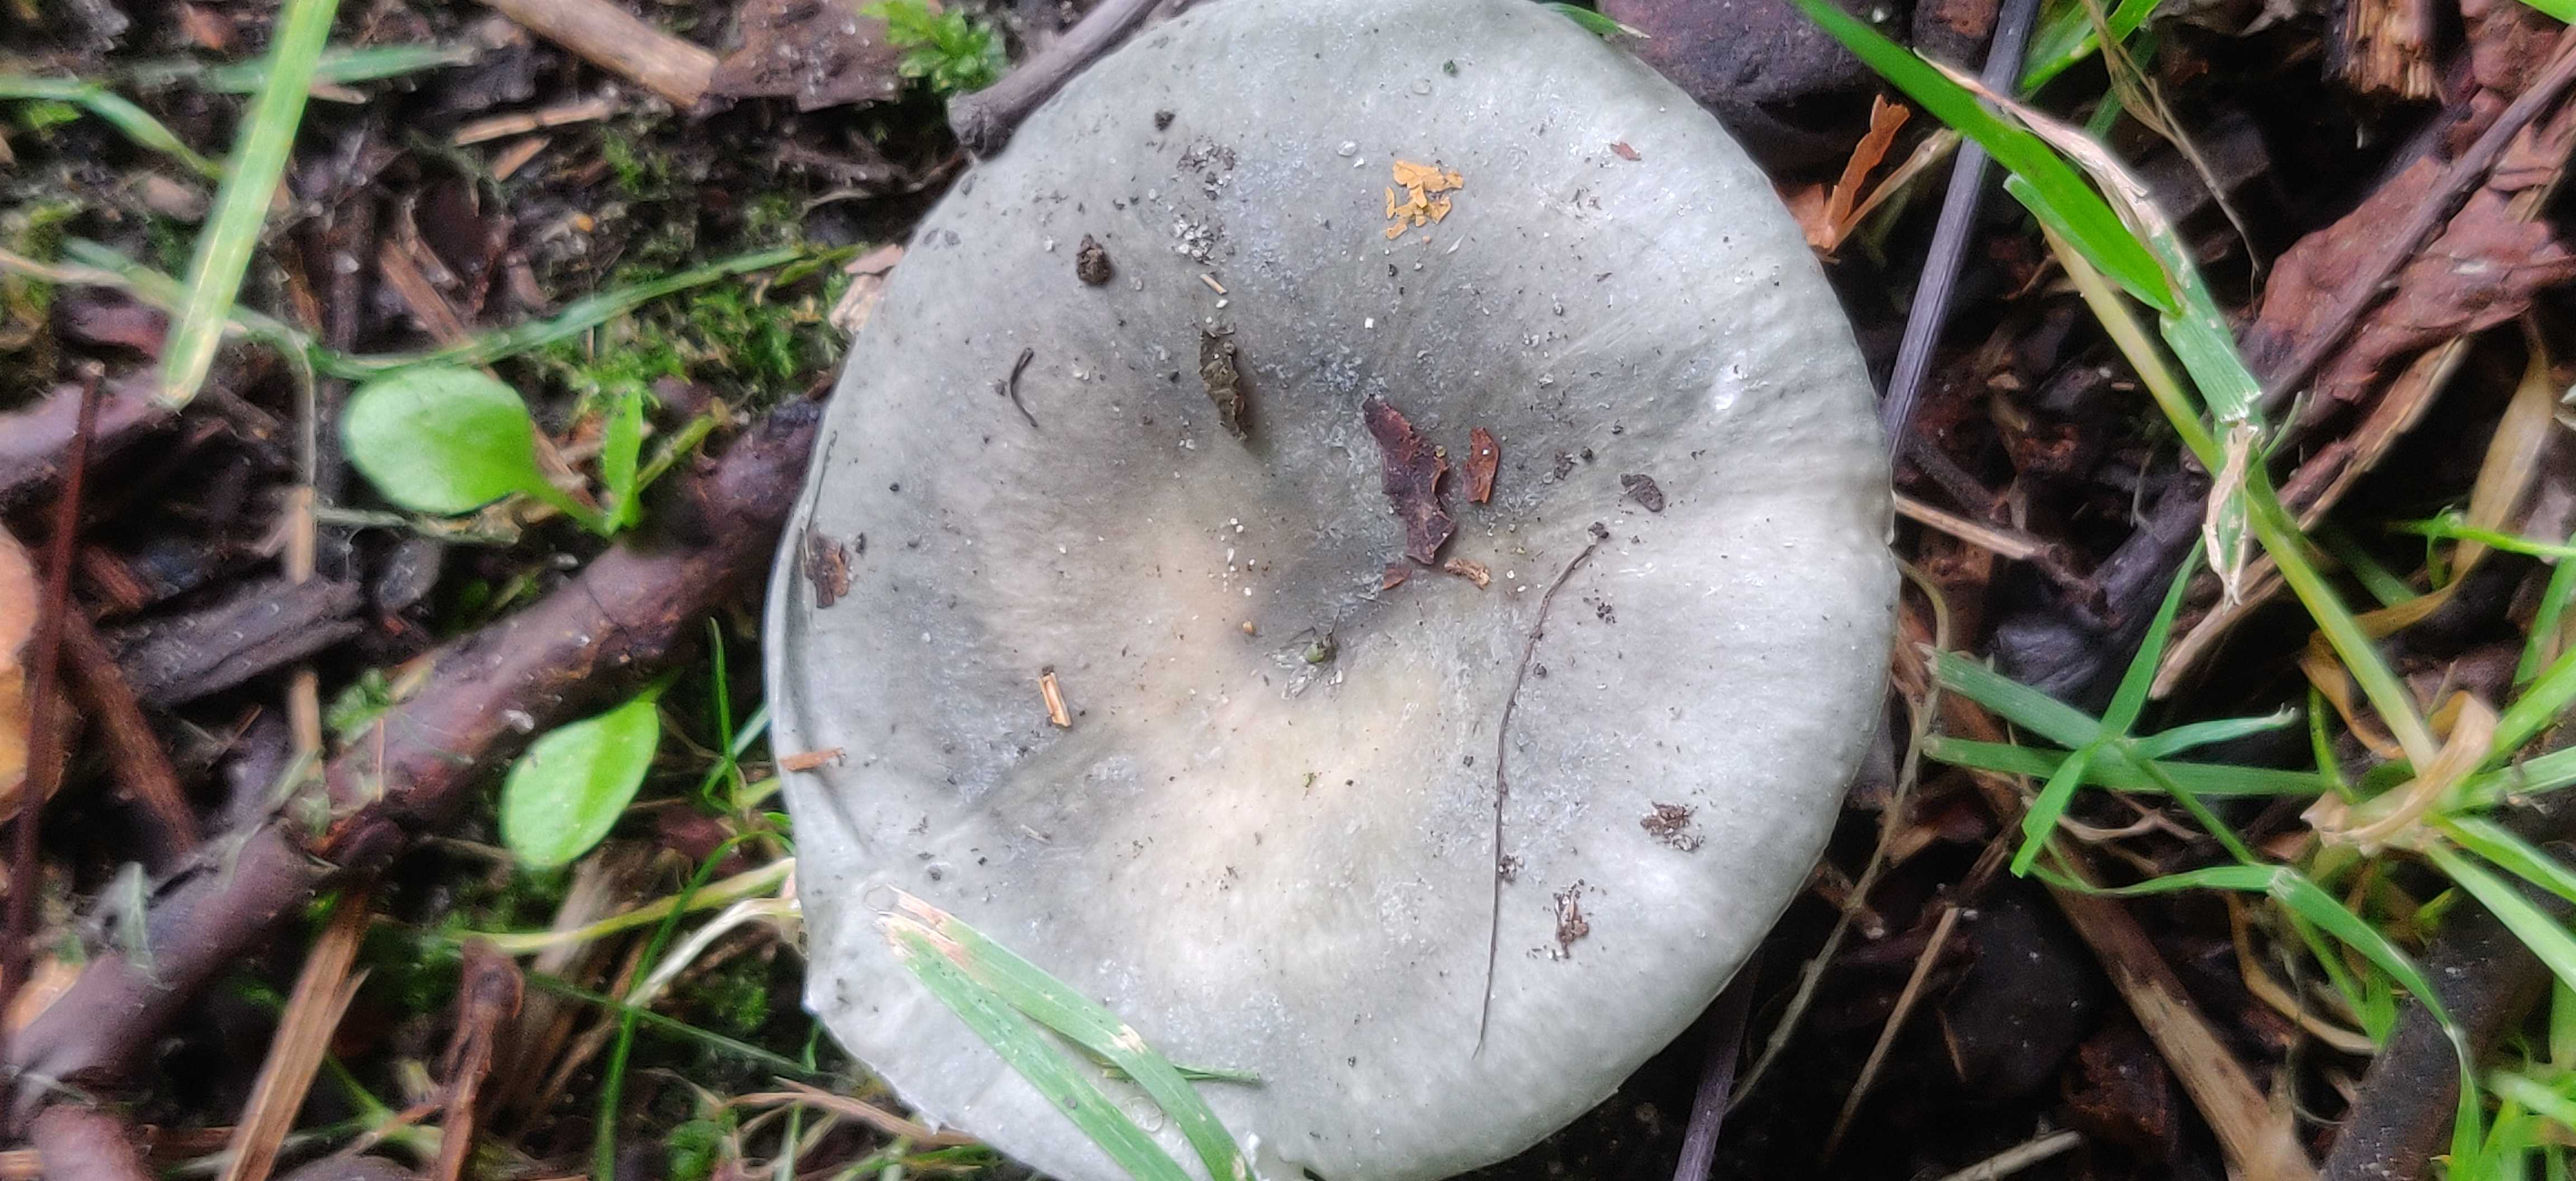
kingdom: Fungi
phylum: Basidiomycota
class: Agaricomycetes
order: Russulales
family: Russulaceae
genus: Russula
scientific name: Russula
